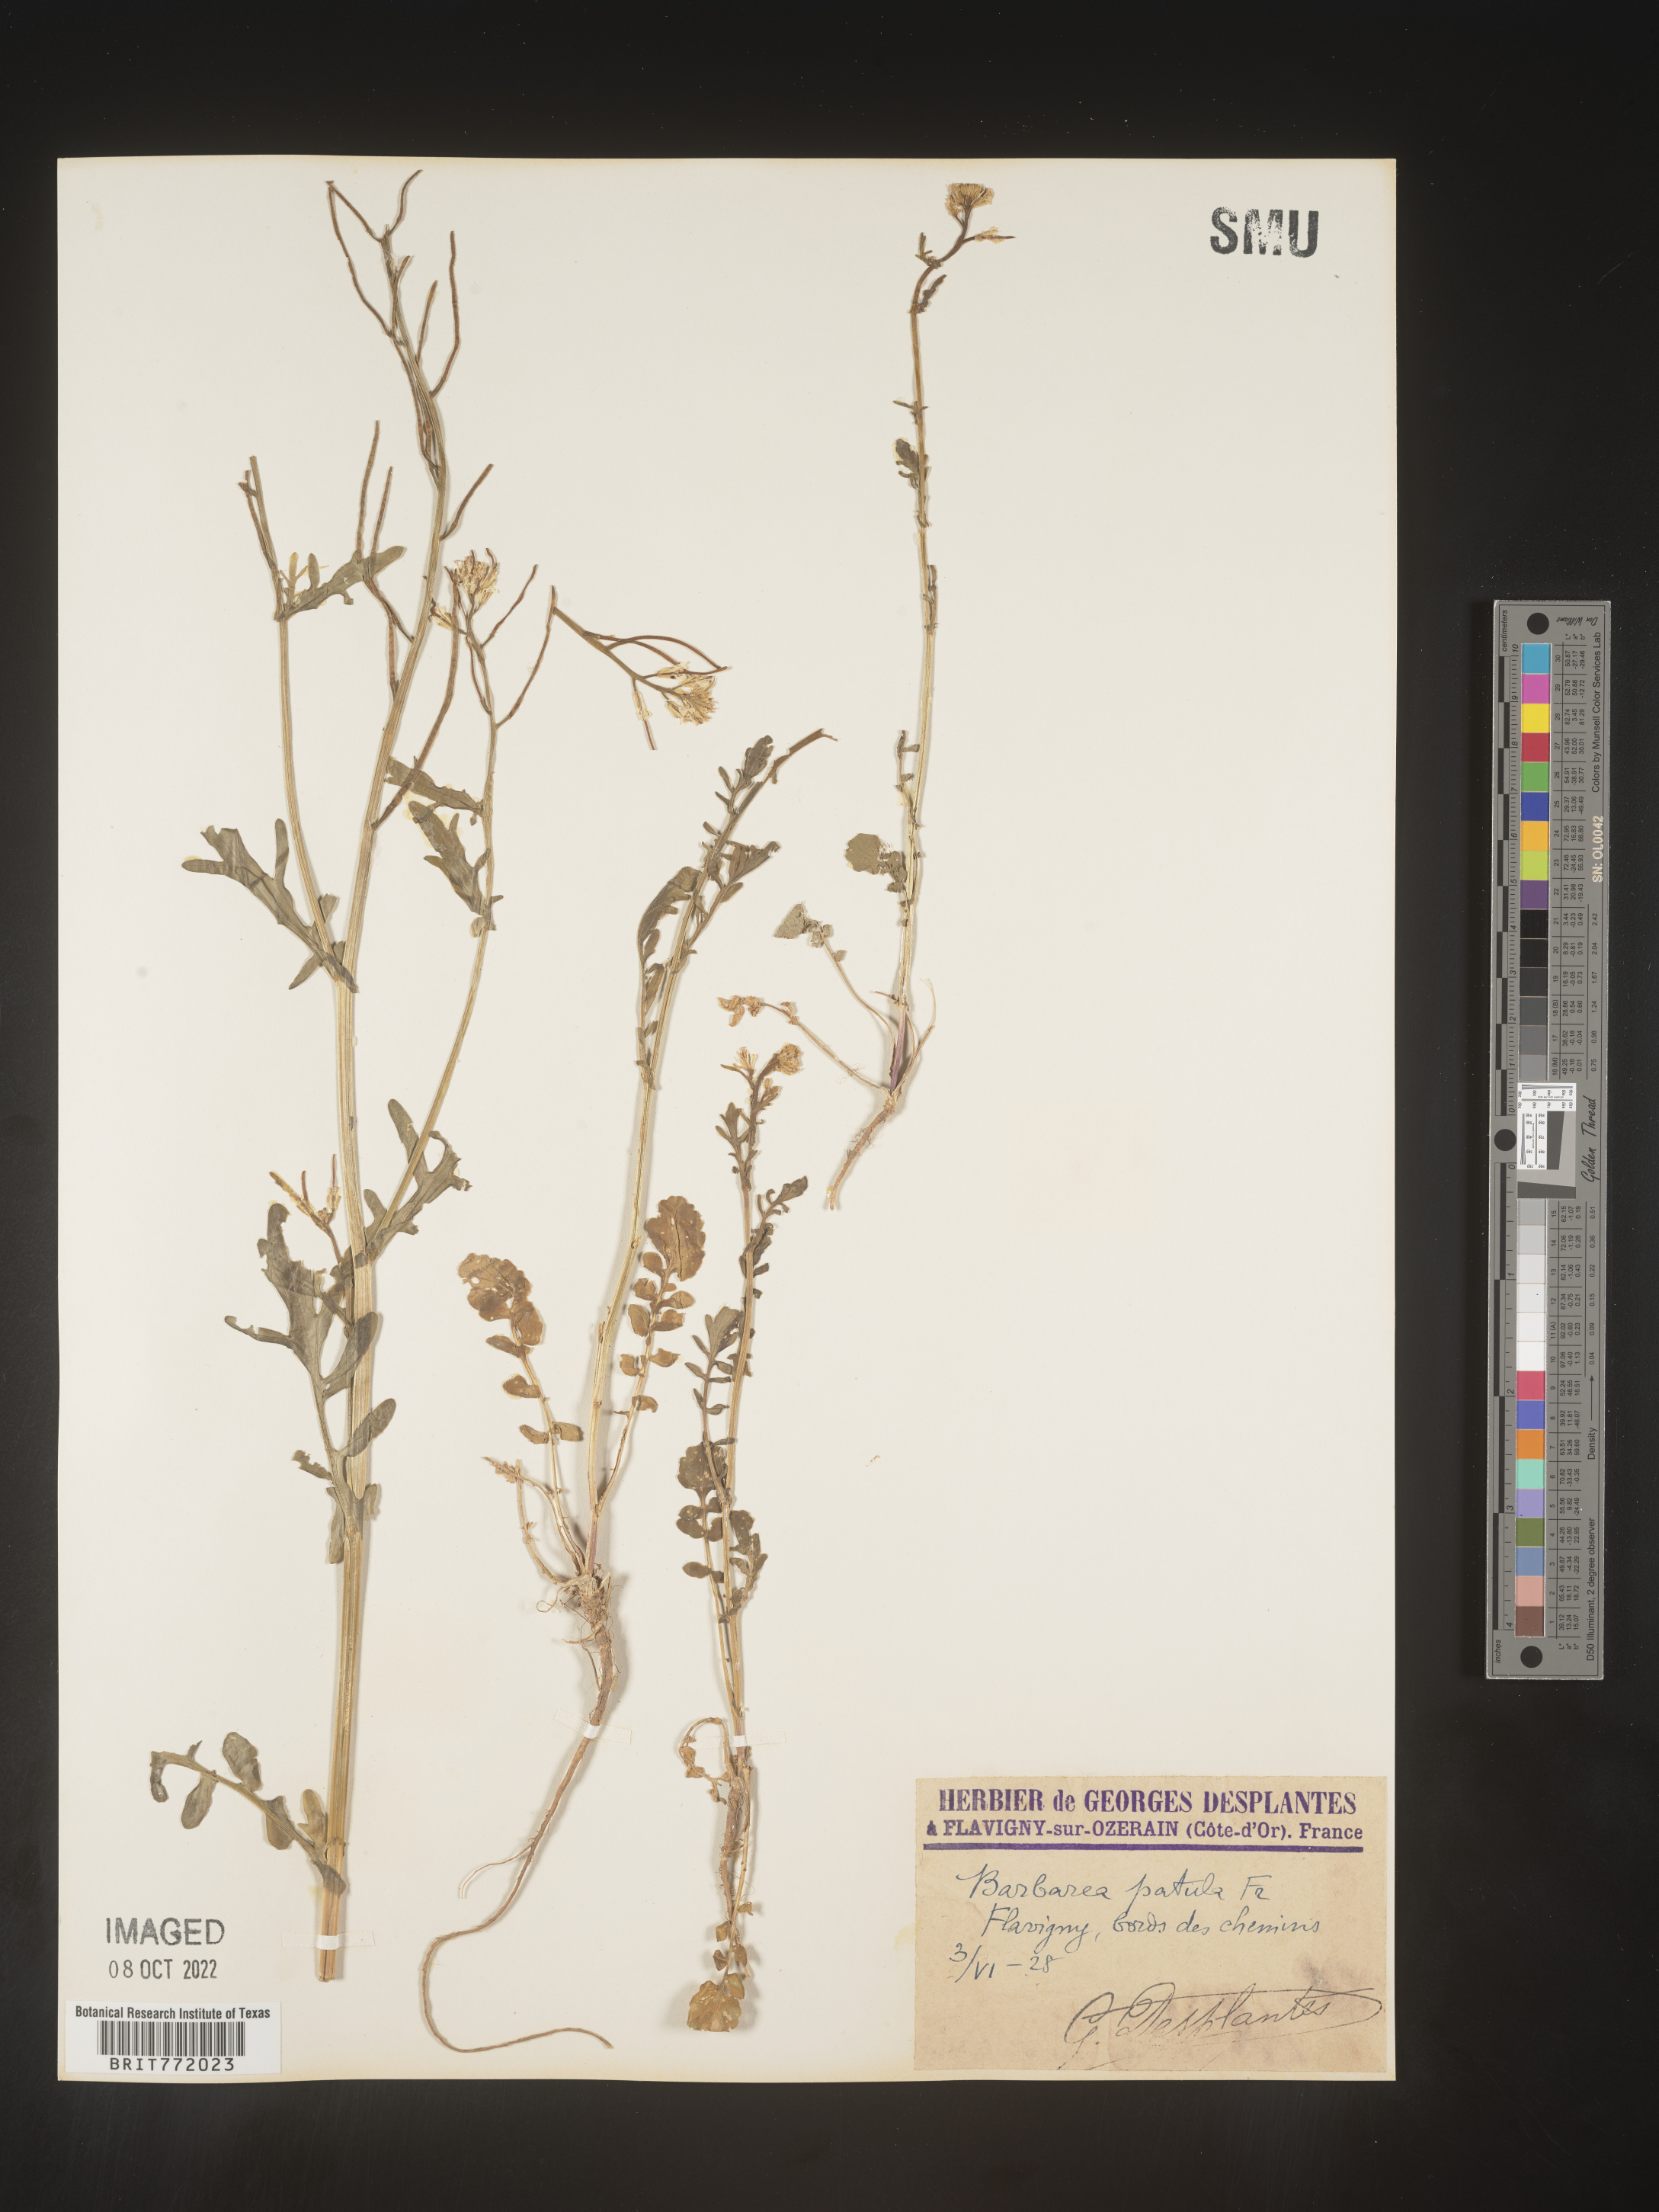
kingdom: Plantae
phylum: Tracheophyta
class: Magnoliopsida
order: Brassicales
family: Brassicaceae
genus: Barbarea
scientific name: Barbarea
